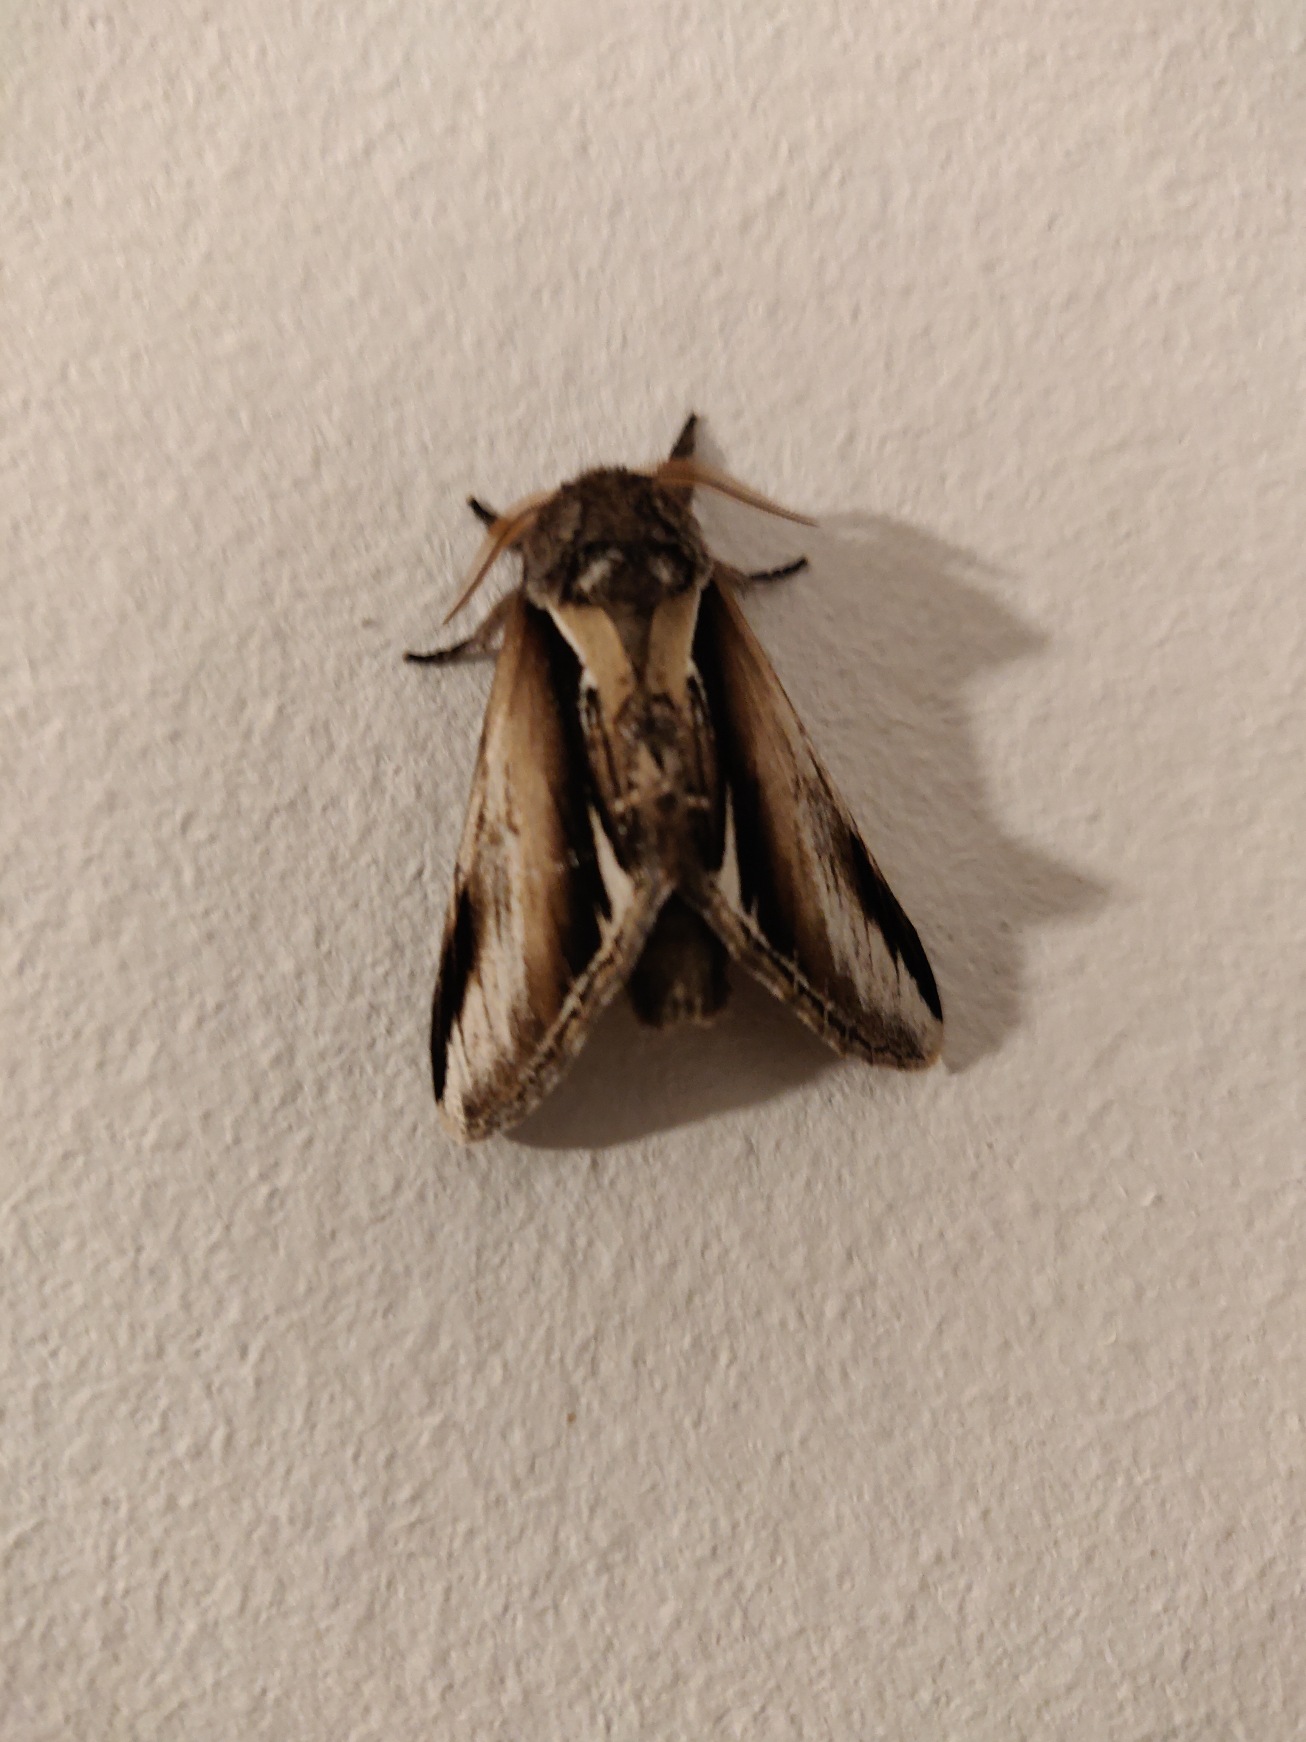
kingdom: Animalia
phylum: Arthropoda
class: Insecta
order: Lepidoptera
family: Notodontidae
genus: Pheosia
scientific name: Pheosia gnoma
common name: Birkeporcelænsspinder
